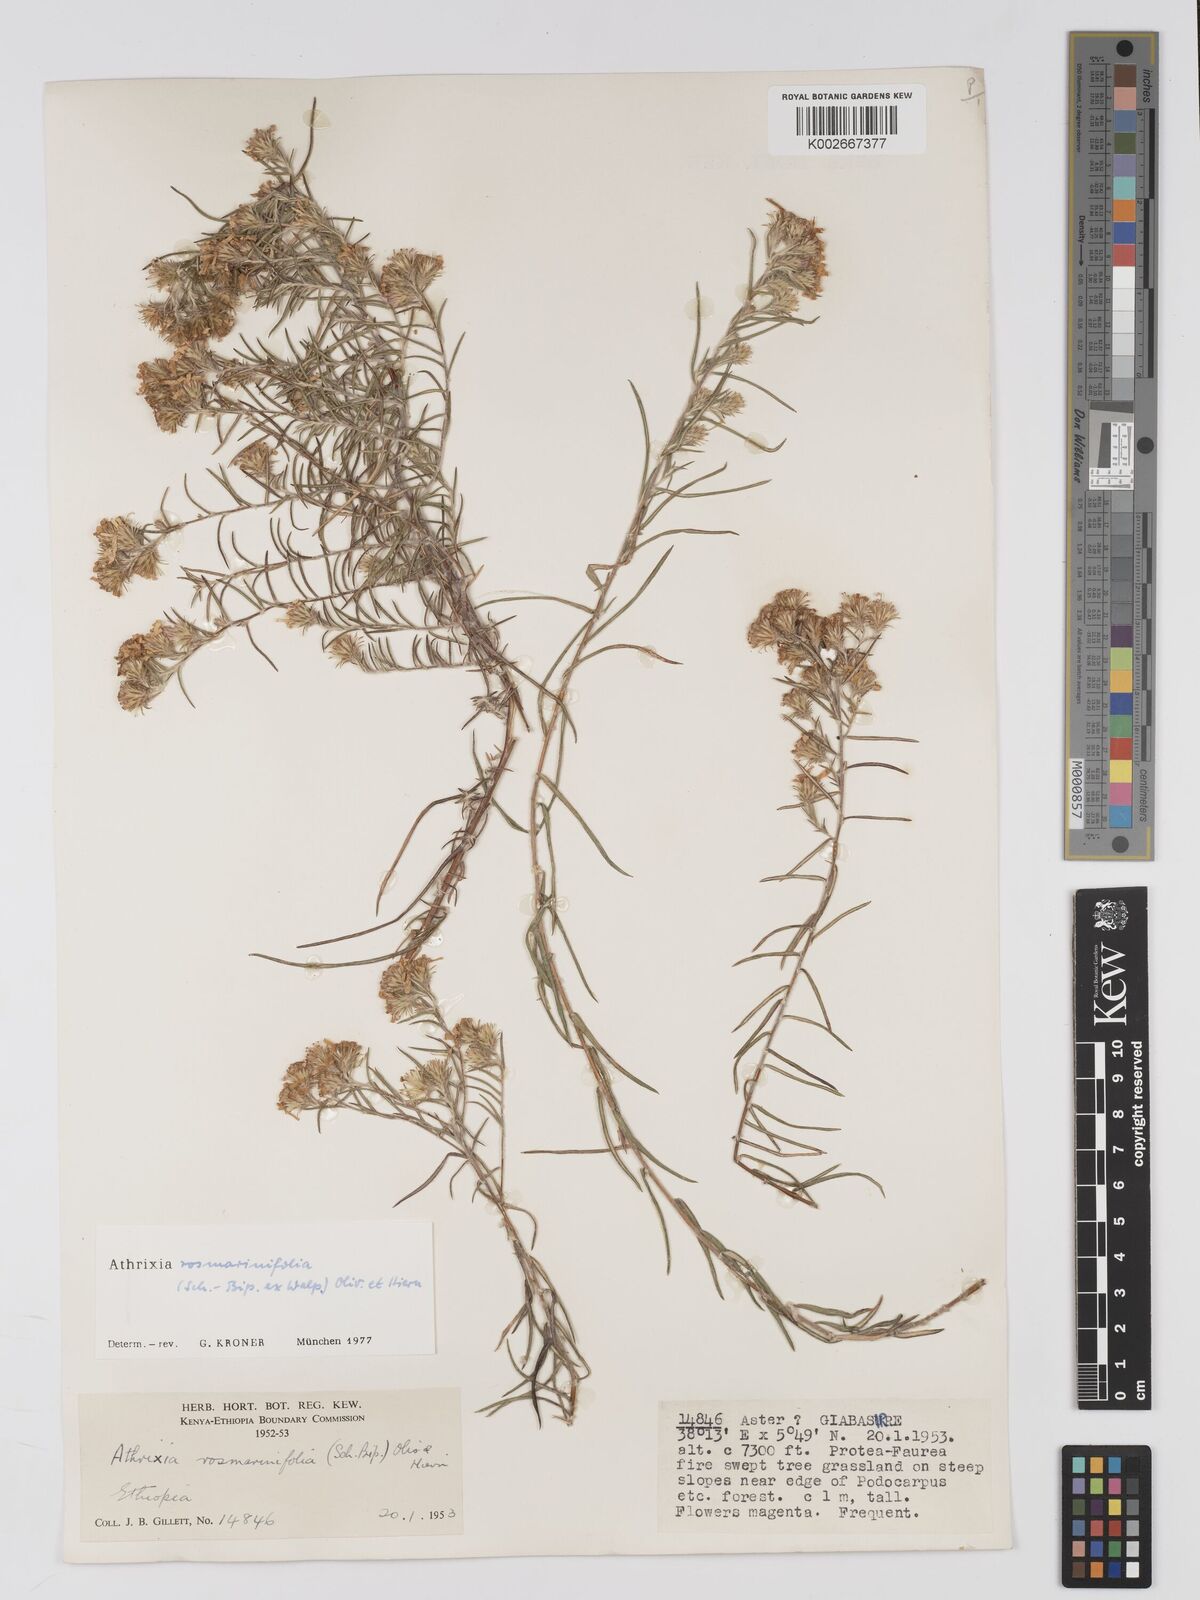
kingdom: Plantae
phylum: Tracheophyta
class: Magnoliopsida
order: Asterales
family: Asteraceae
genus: Athrixia
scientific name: Athrixia rosmarinifolia
